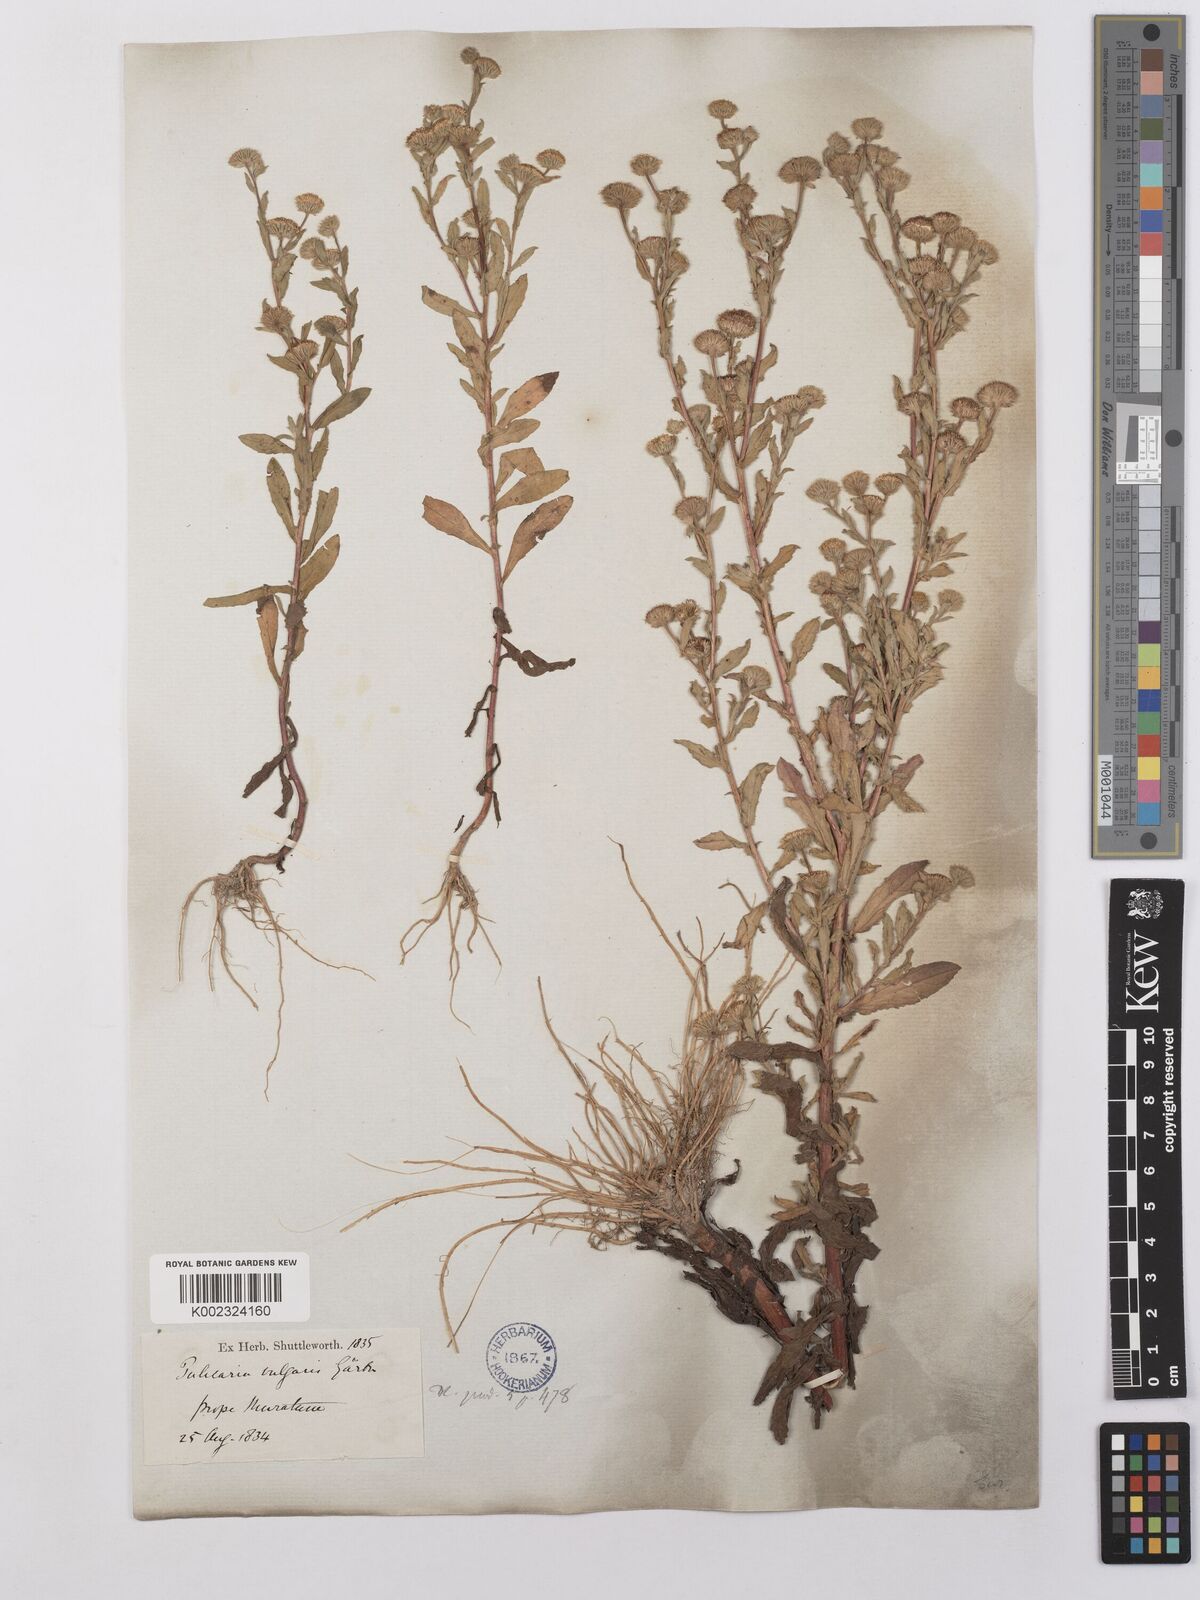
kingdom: Plantae
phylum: Tracheophyta
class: Magnoliopsida
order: Asterales
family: Asteraceae
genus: Pulicaria
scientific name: Pulicaria vulgaris
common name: Small fleabane
